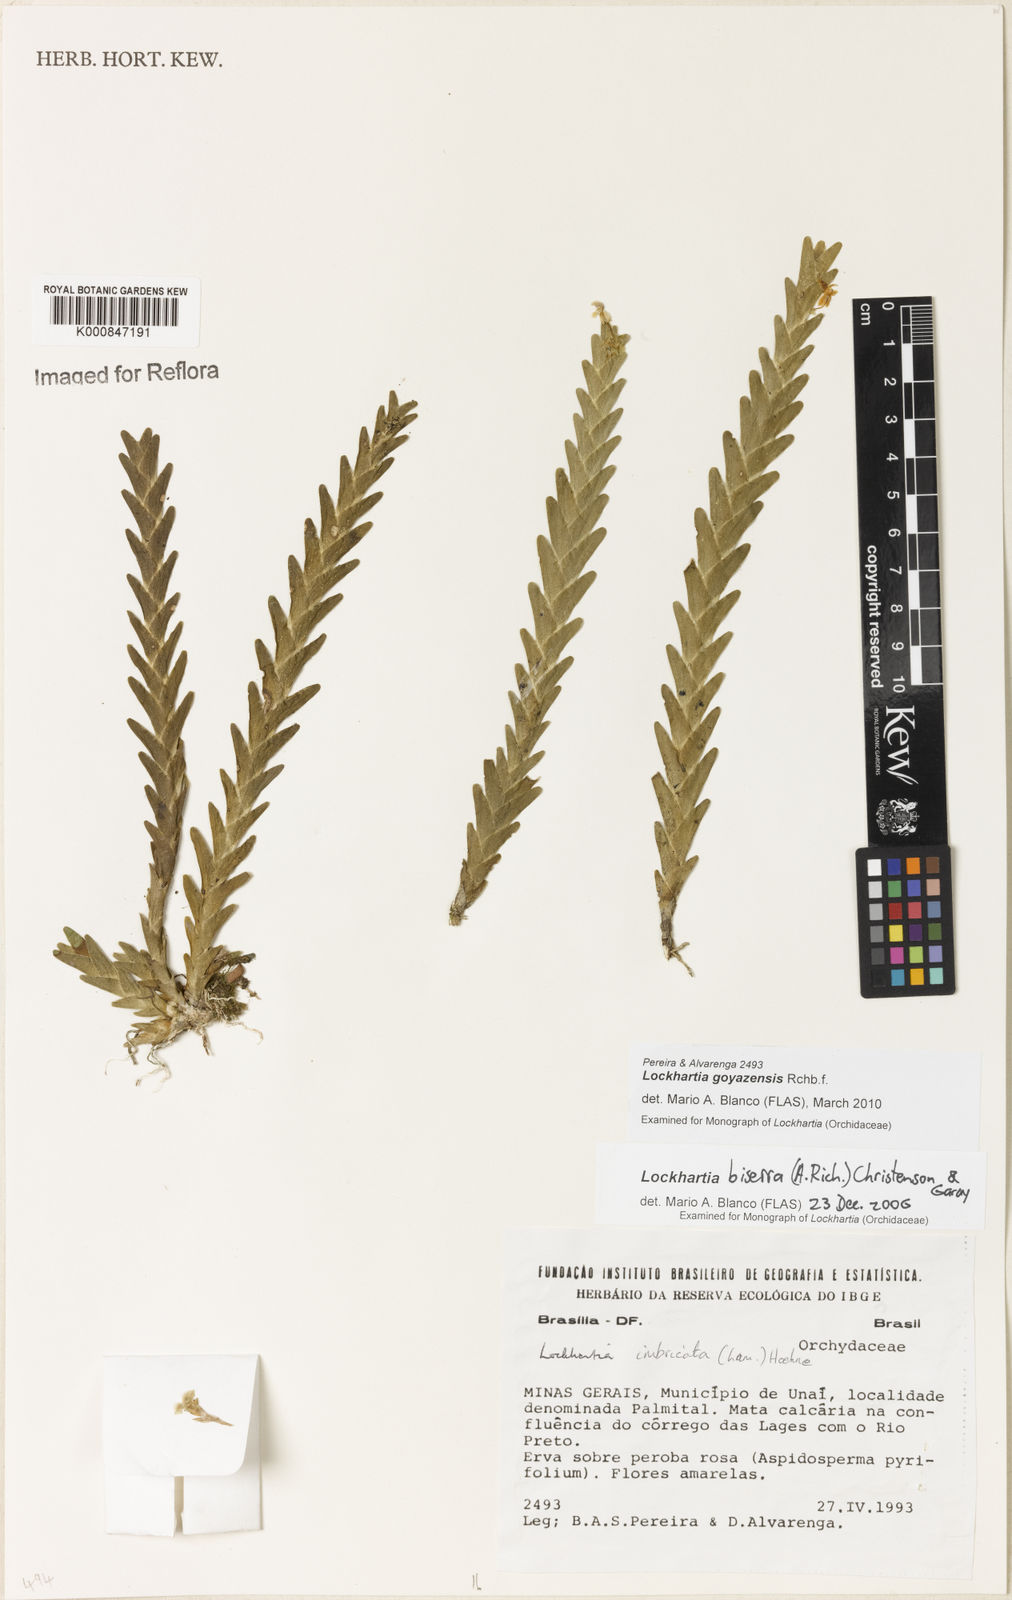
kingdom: Plantae
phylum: Tracheophyta
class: Liliopsida
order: Asparagales
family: Orchidaceae
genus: Lockhartia
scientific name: Lockhartia goyazensis
